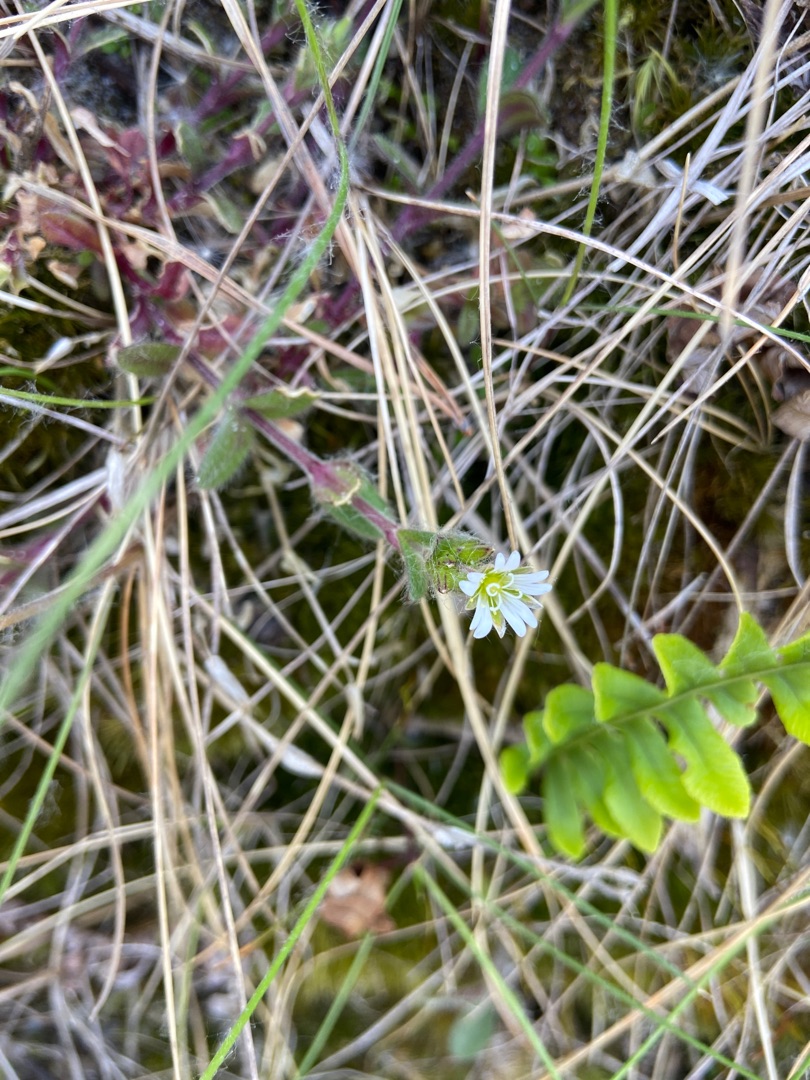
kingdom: Plantae
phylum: Tracheophyta
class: Magnoliopsida
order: Caryophyllales
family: Caryophyllaceae
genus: Cerastium
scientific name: Cerastium fontanum
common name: Almindelig hønsetarm
